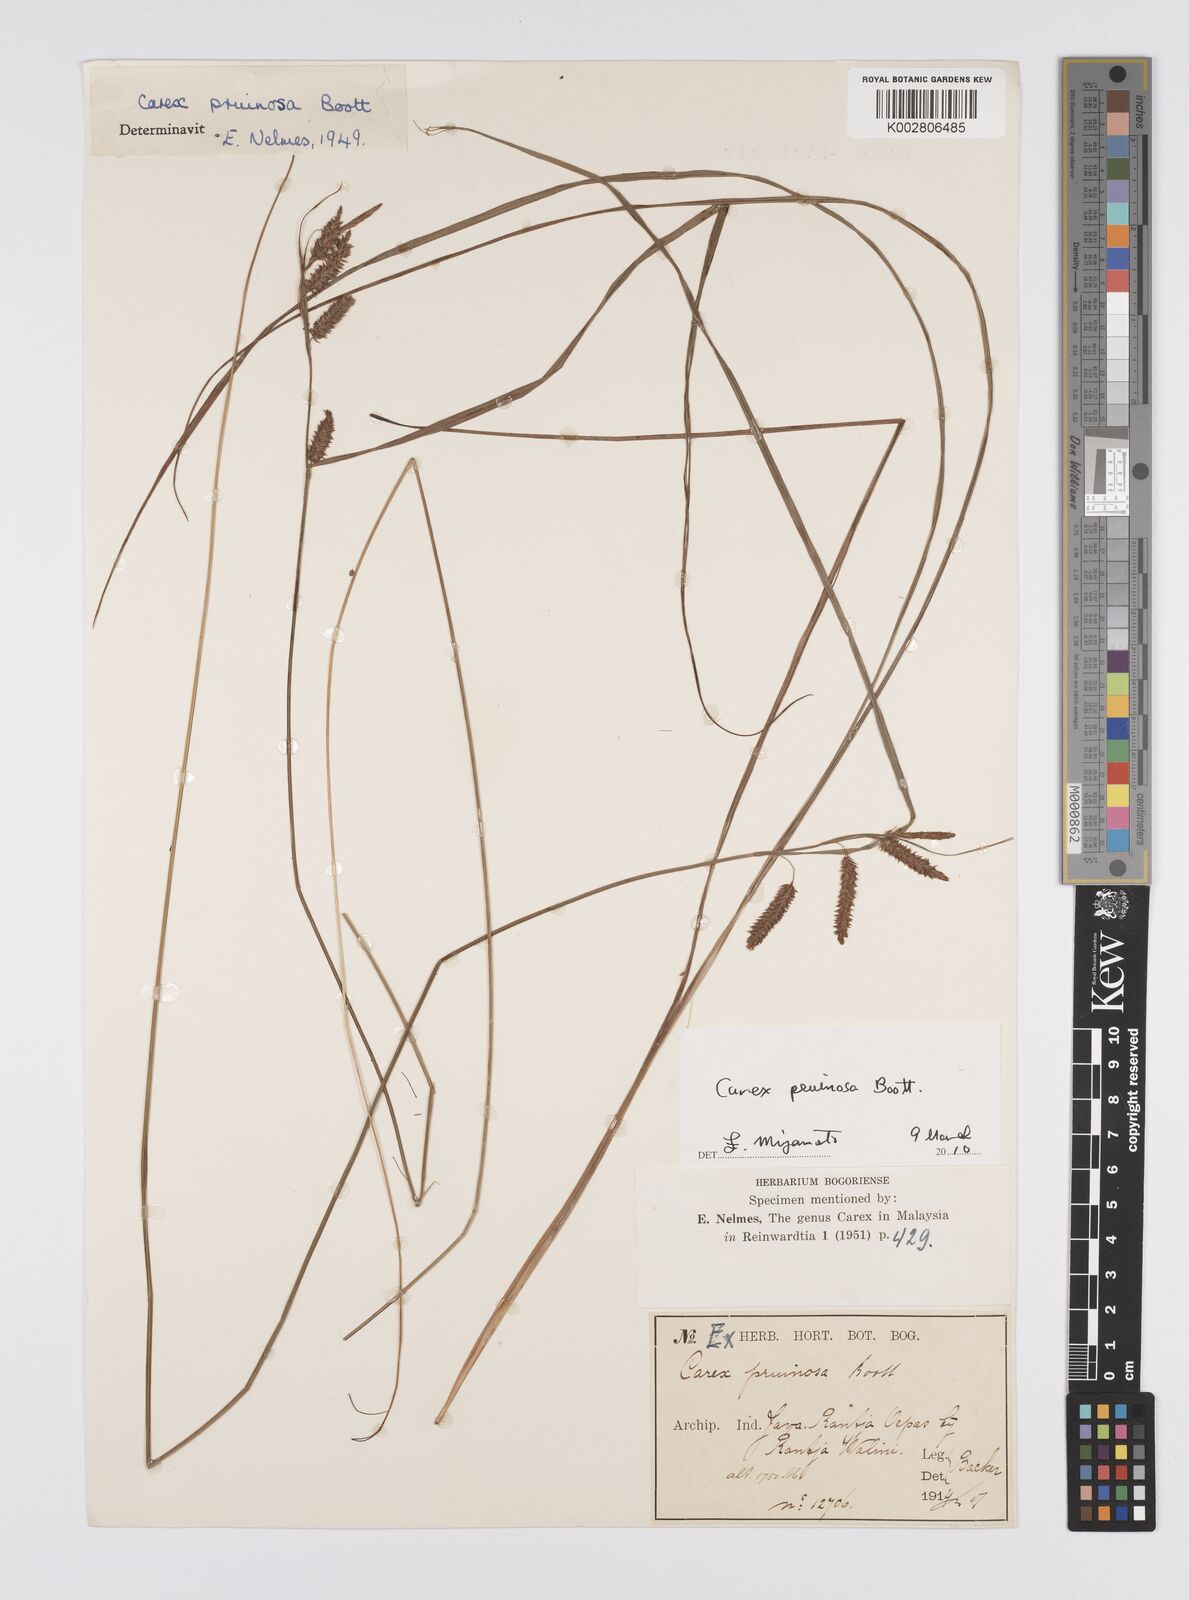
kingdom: Plantae
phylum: Tracheophyta
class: Liliopsida
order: Poales
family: Cyperaceae
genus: Carex
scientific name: Carex pruinosa
